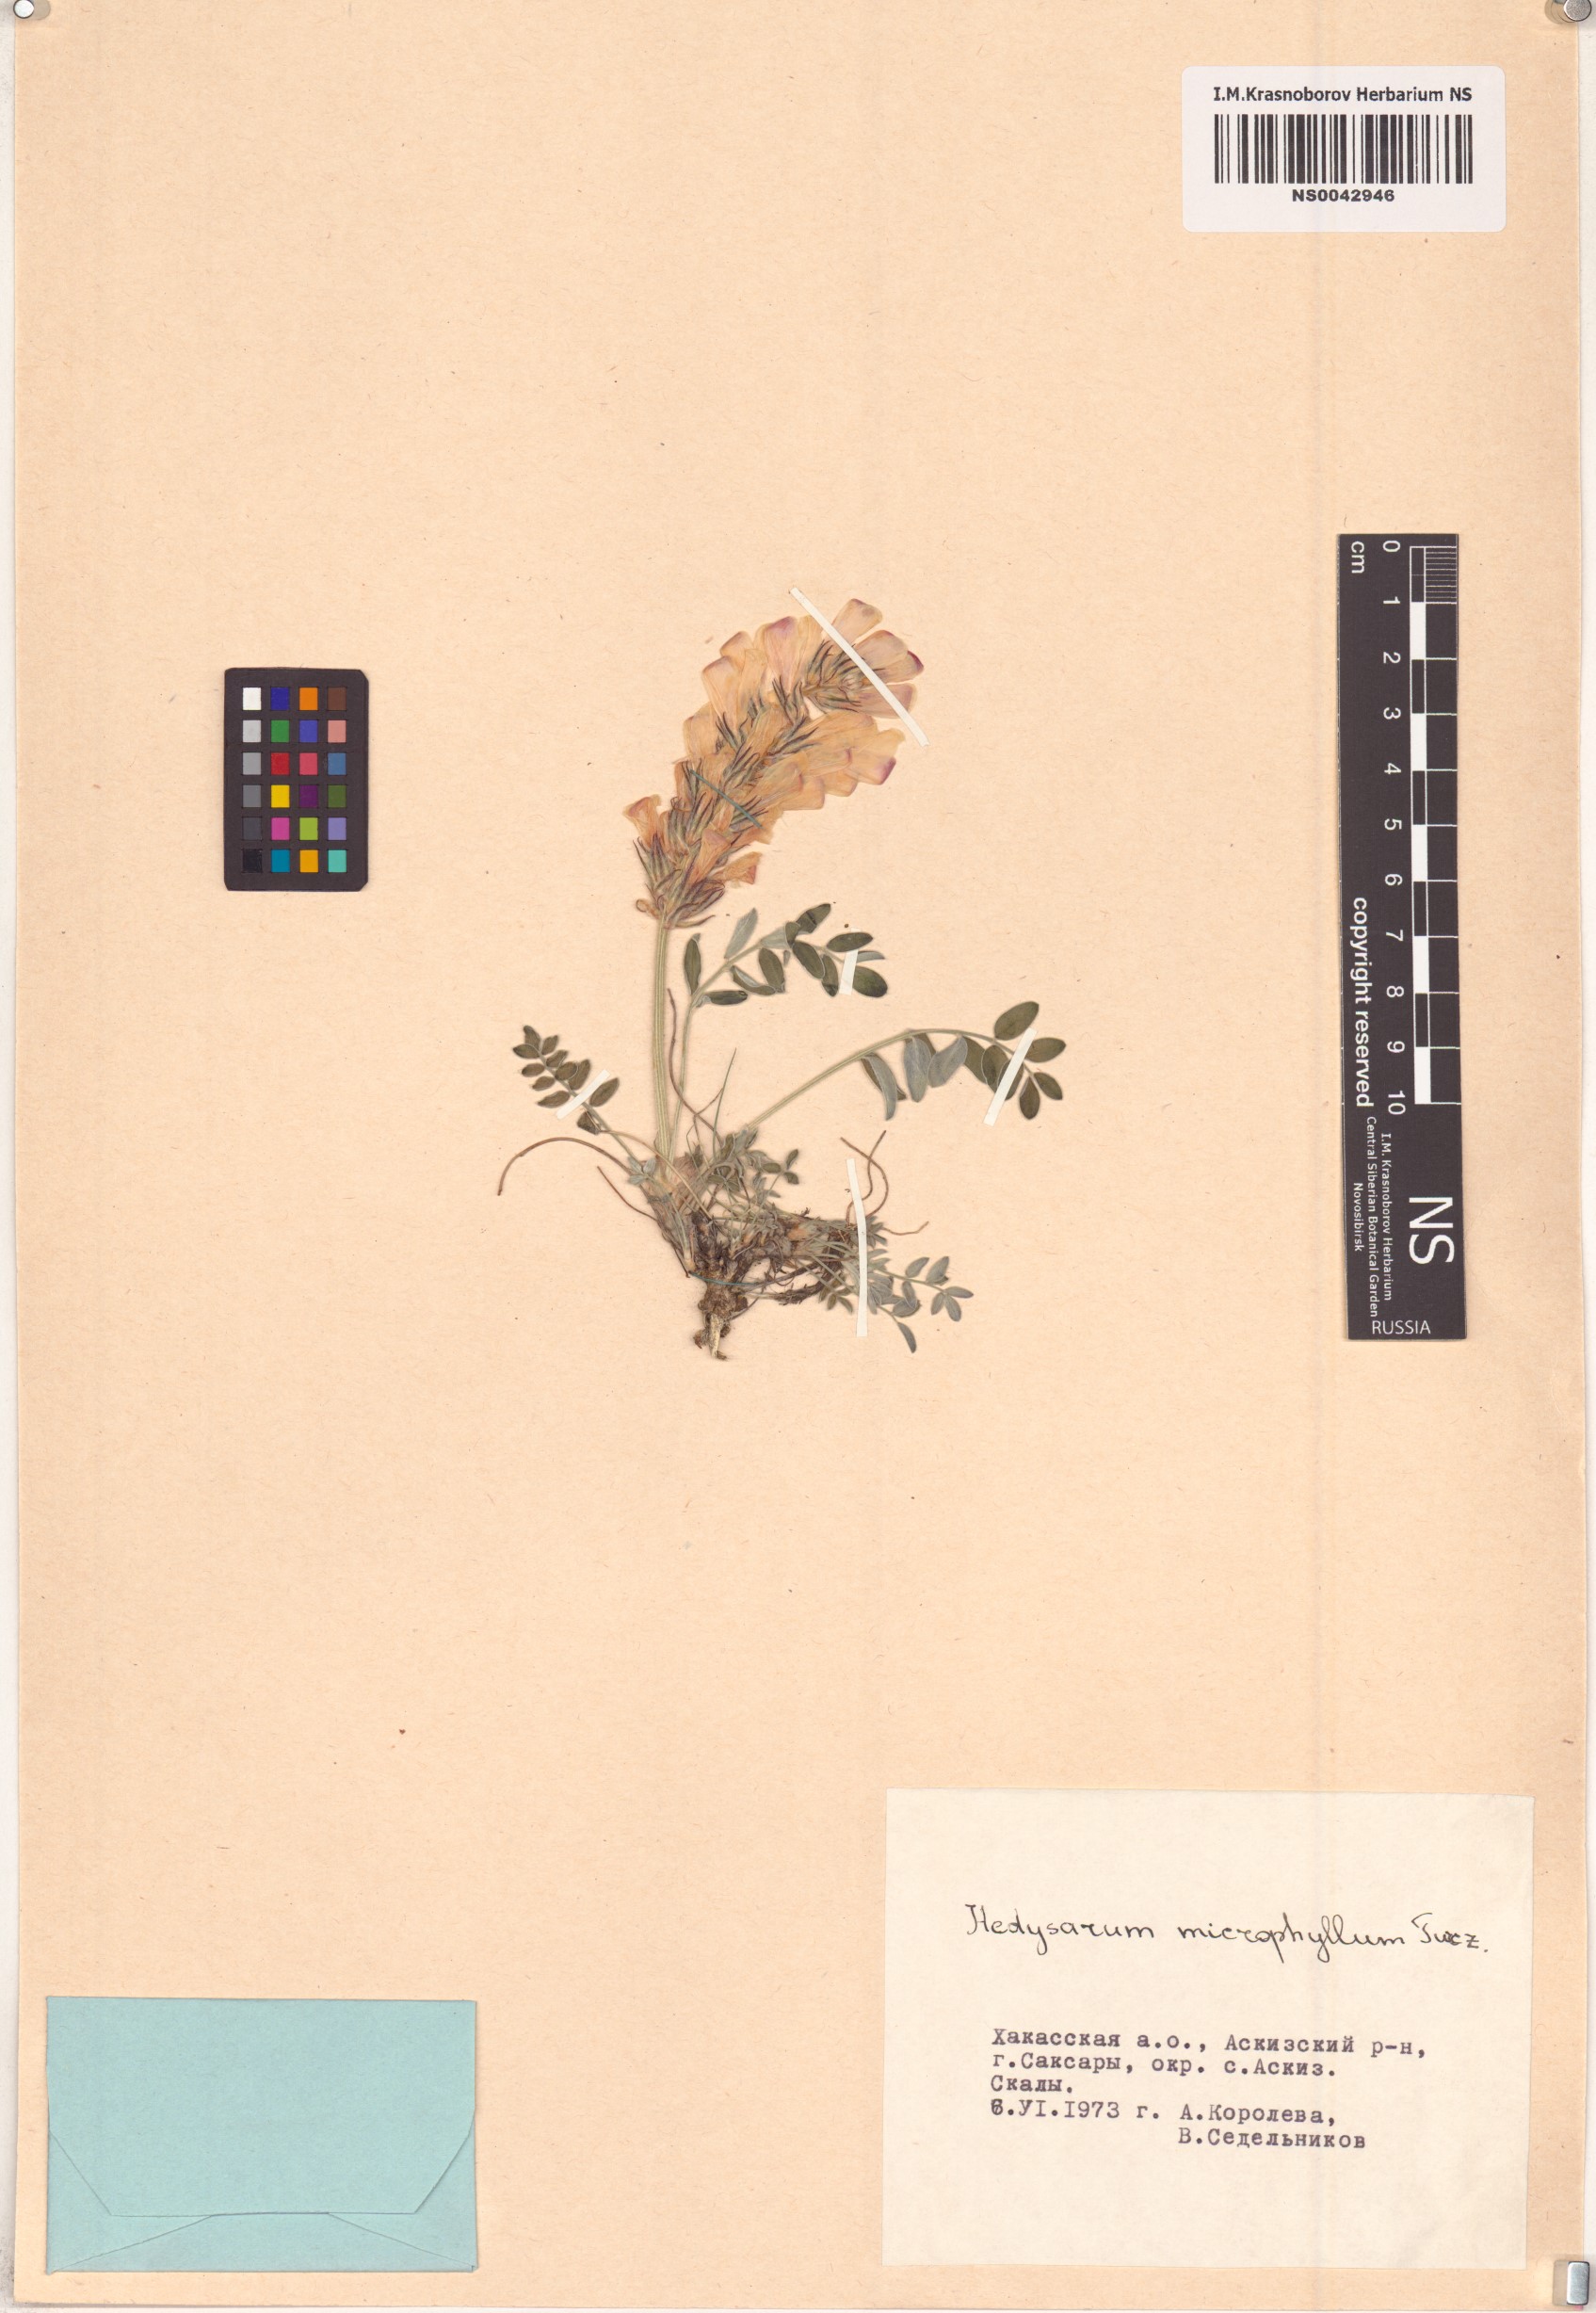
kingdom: Plantae
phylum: Tracheophyta
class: Magnoliopsida
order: Fabales
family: Fabaceae
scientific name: Fabaceae
